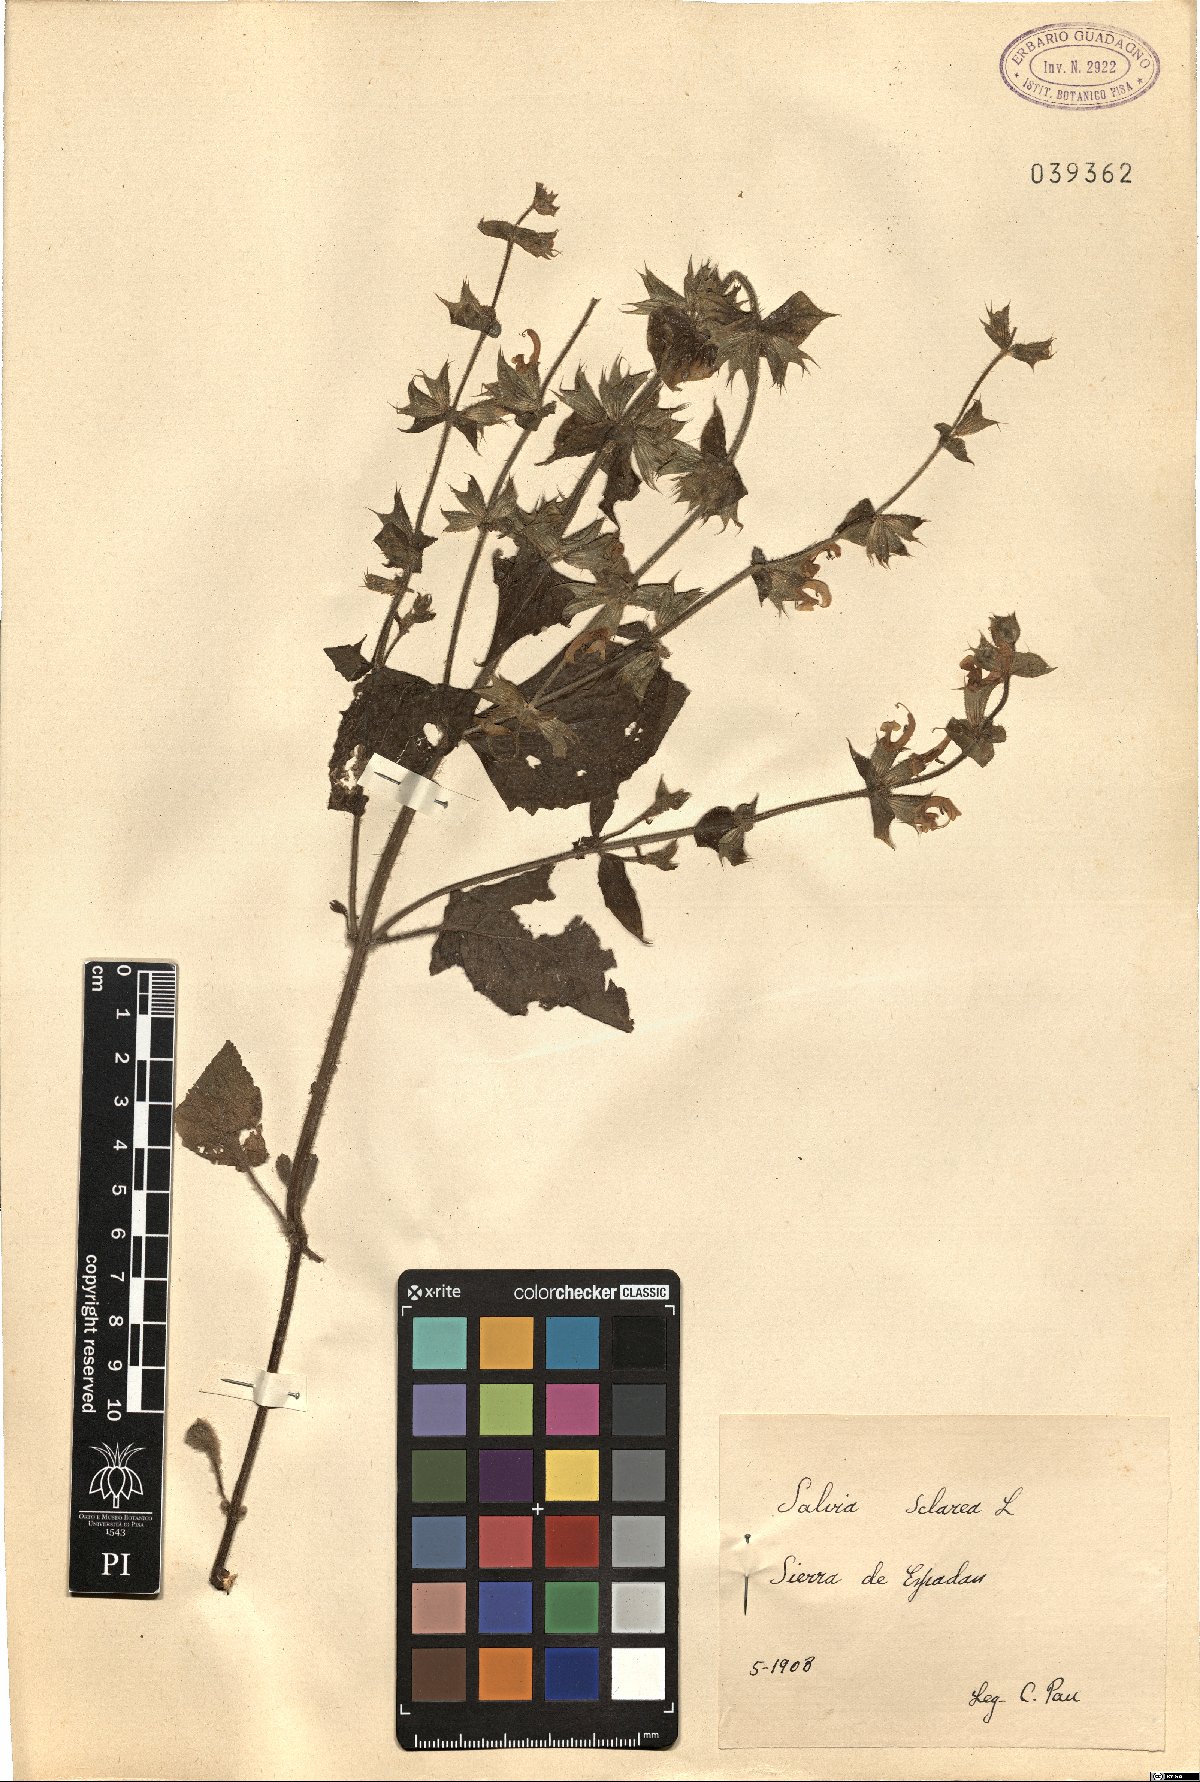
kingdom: Plantae
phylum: Tracheophyta
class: Magnoliopsida
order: Lamiales
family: Lamiaceae
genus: Salvia
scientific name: Salvia sclarea
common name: Clary
